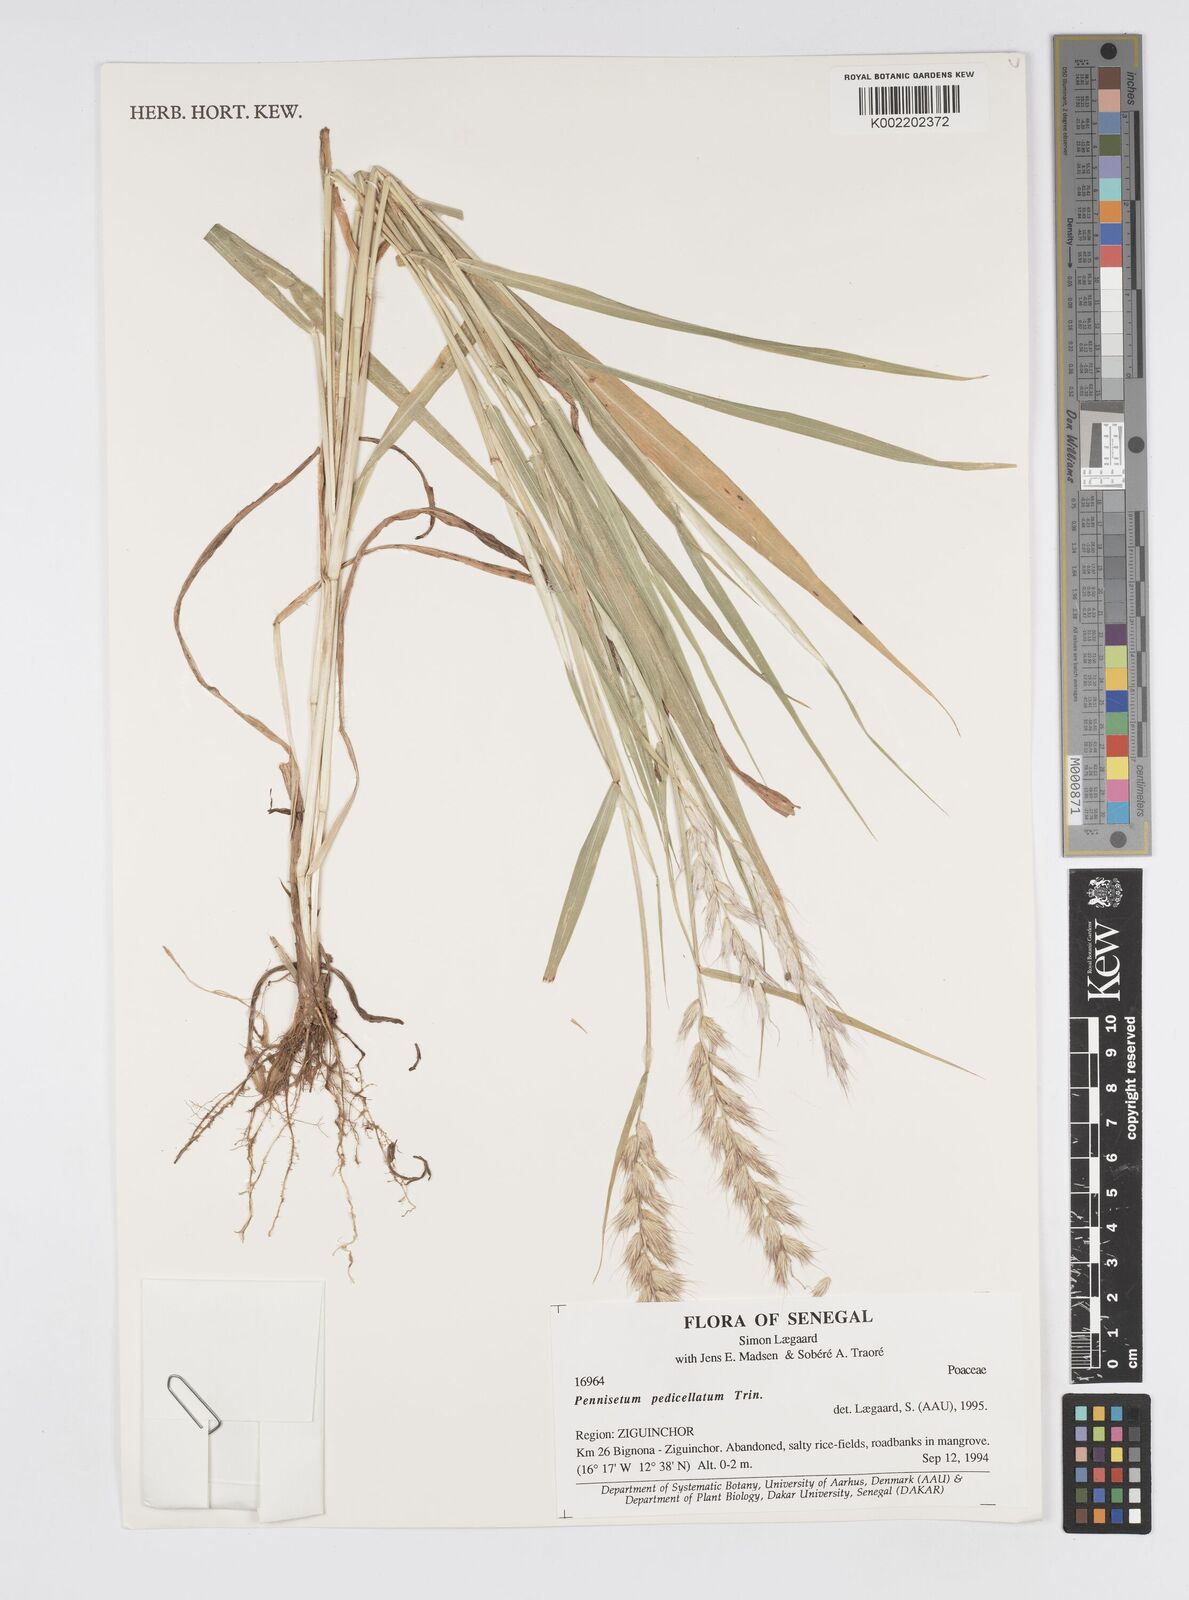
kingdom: Plantae
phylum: Tracheophyta
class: Liliopsida
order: Poales
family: Poaceae
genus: Cenchrus
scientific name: Cenchrus pedicellatus
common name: Hairy fountain grass
